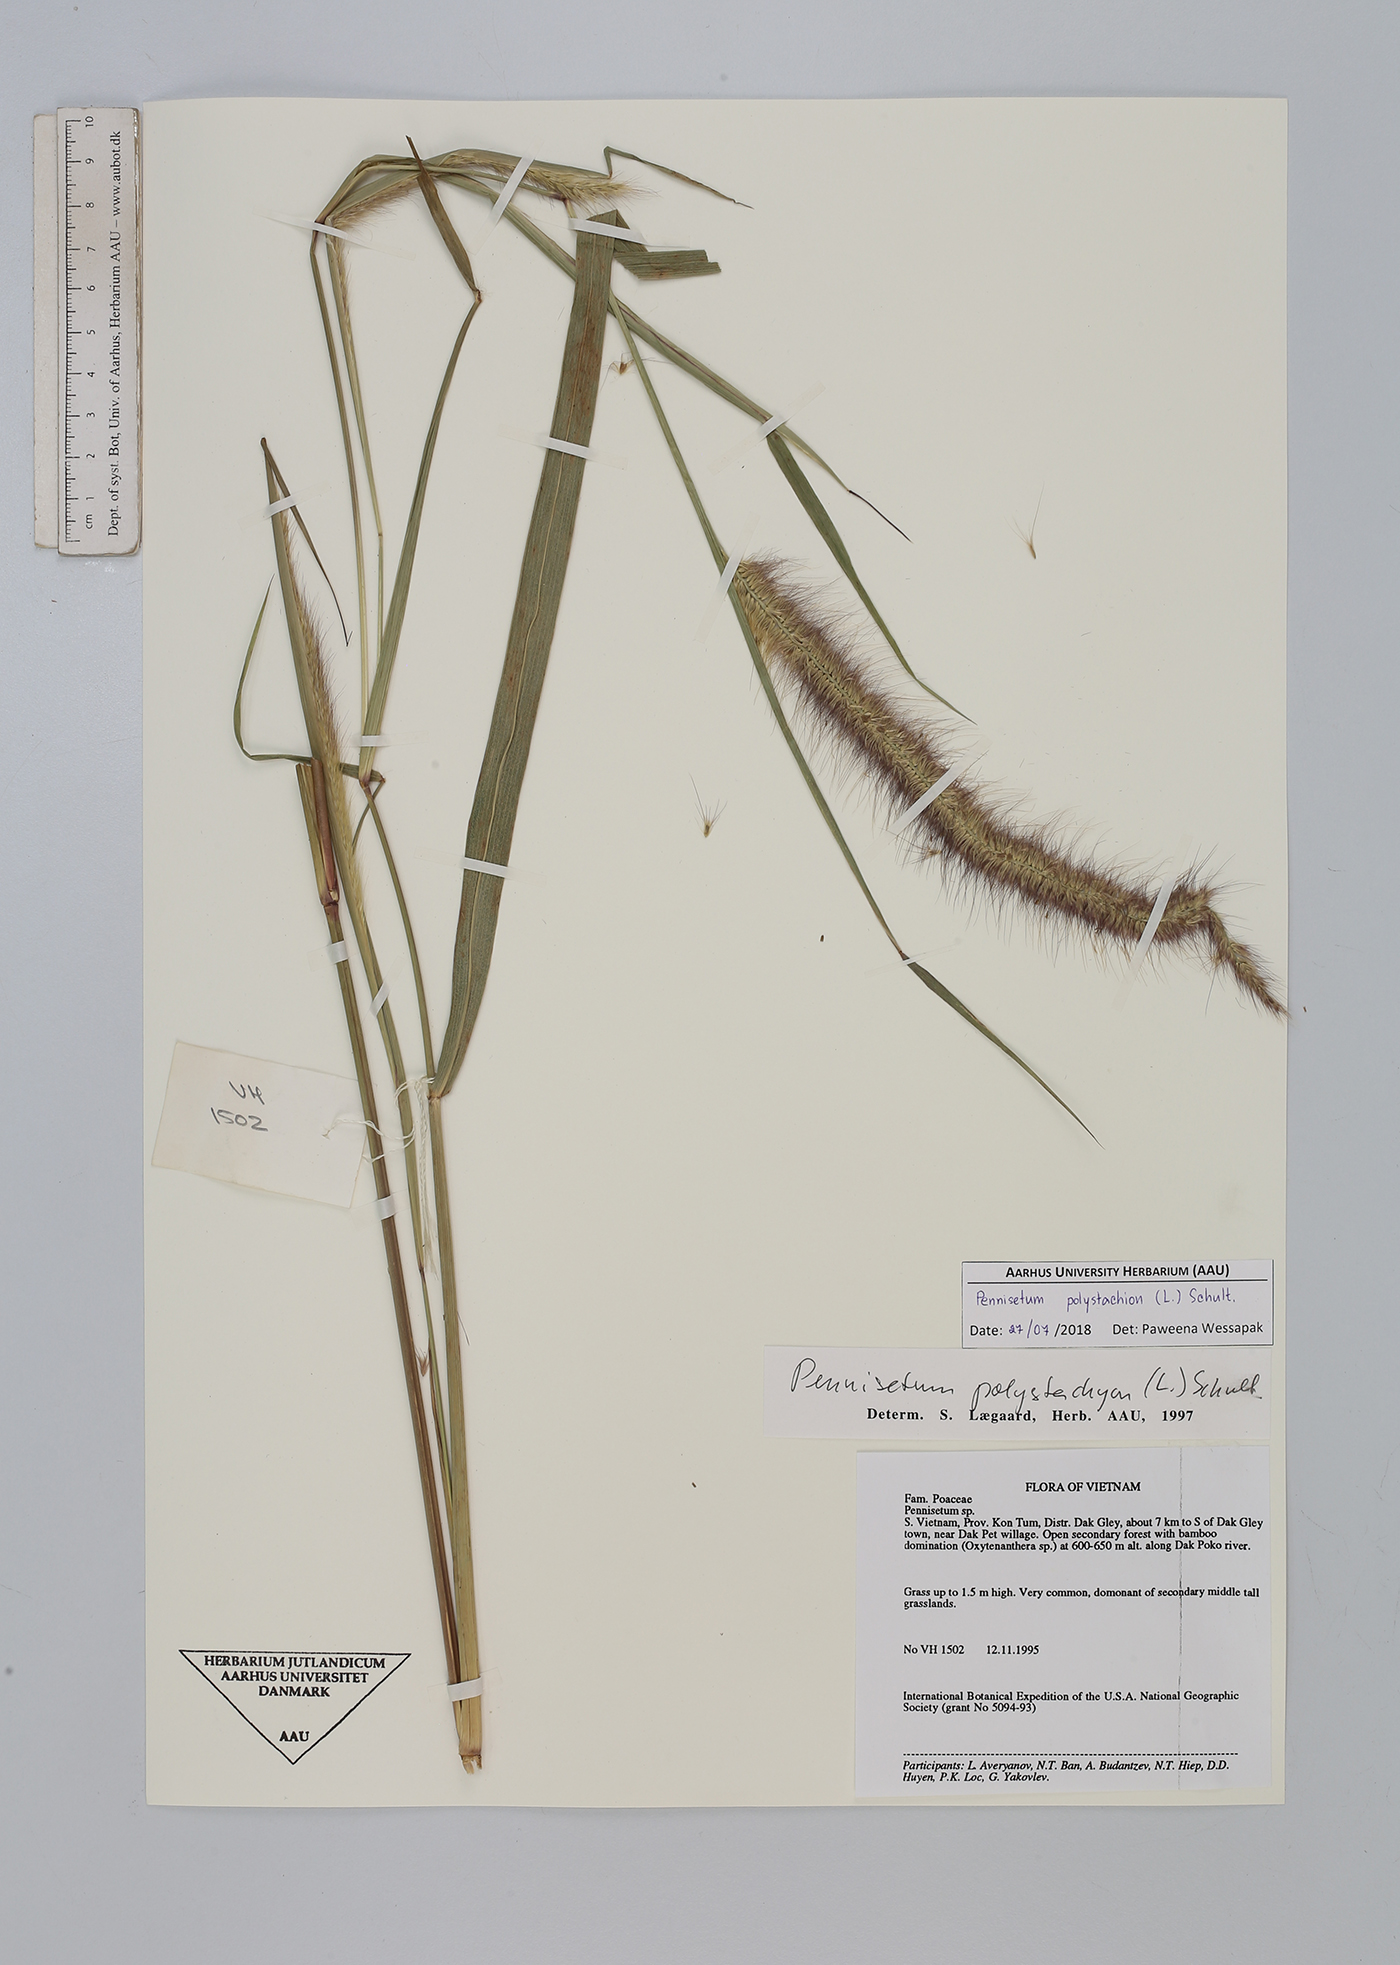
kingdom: Plantae
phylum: Tracheophyta
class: Liliopsida
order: Poales
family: Poaceae
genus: Setaria
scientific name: Setaria parviflora
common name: Knotroot bristle-grass
